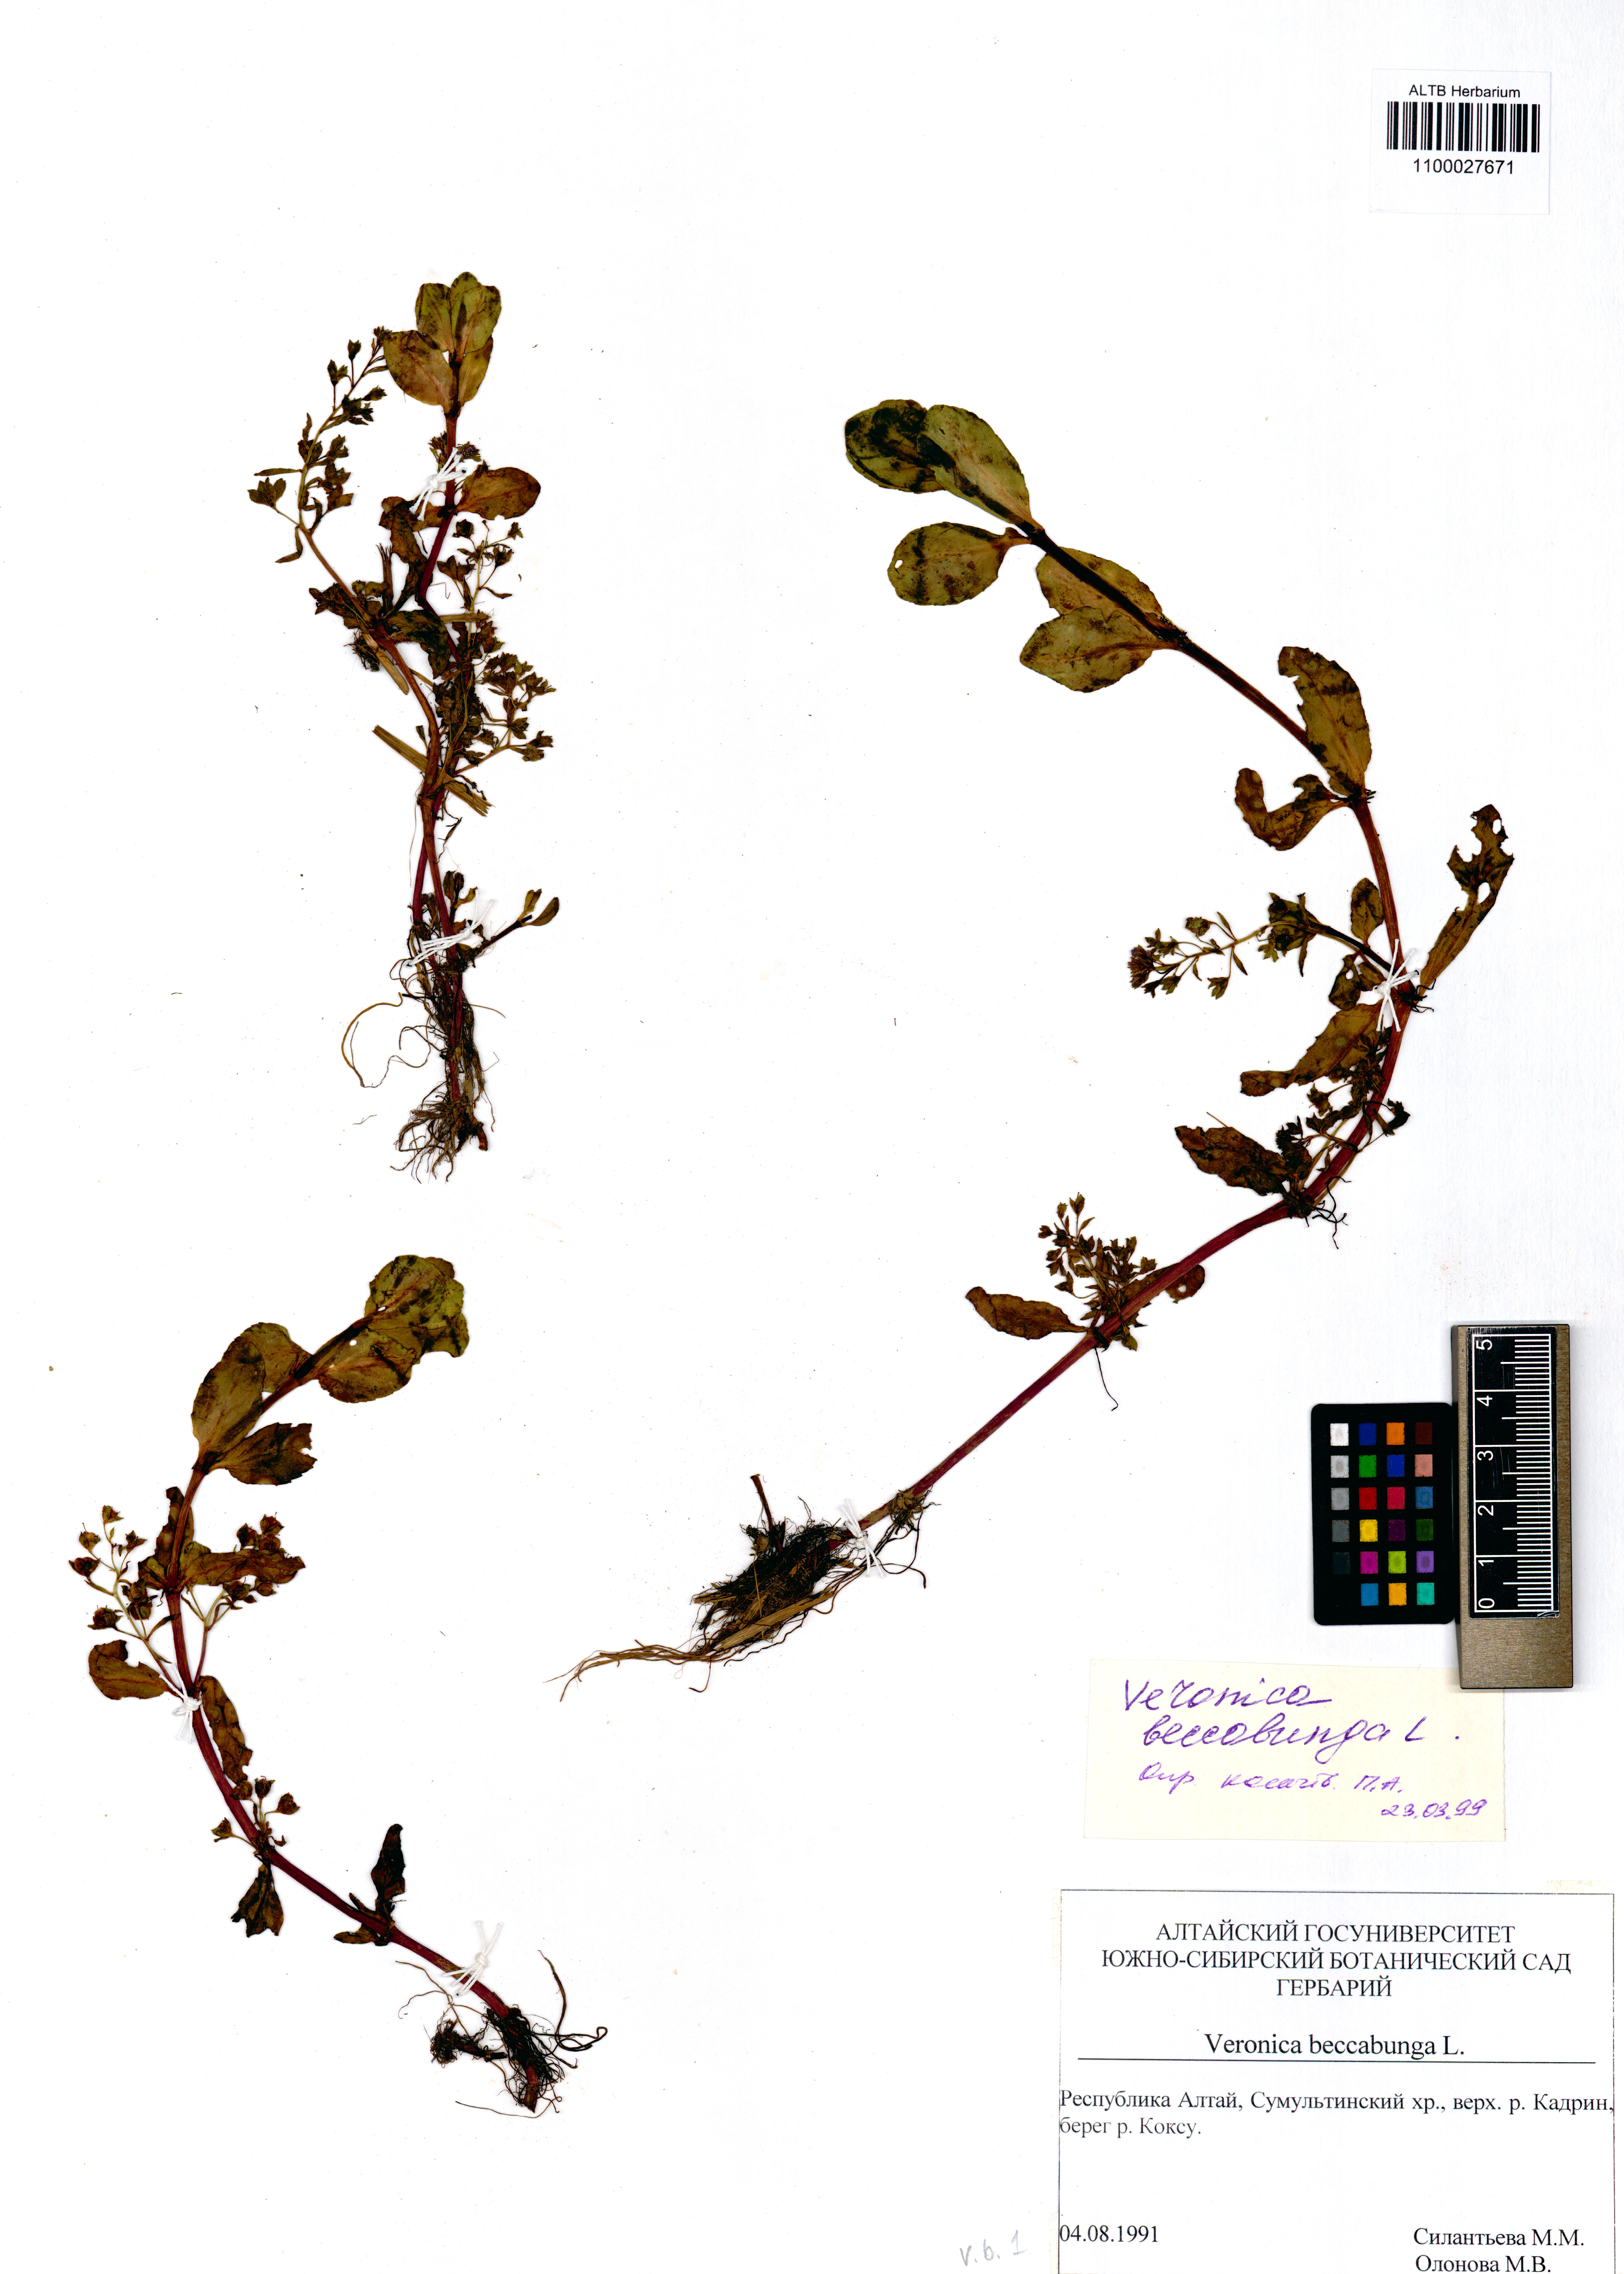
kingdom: Plantae
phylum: Tracheophyta
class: Magnoliopsida
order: Lamiales
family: Plantaginaceae
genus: Veronica
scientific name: Veronica beccabunga
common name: Brooklime
